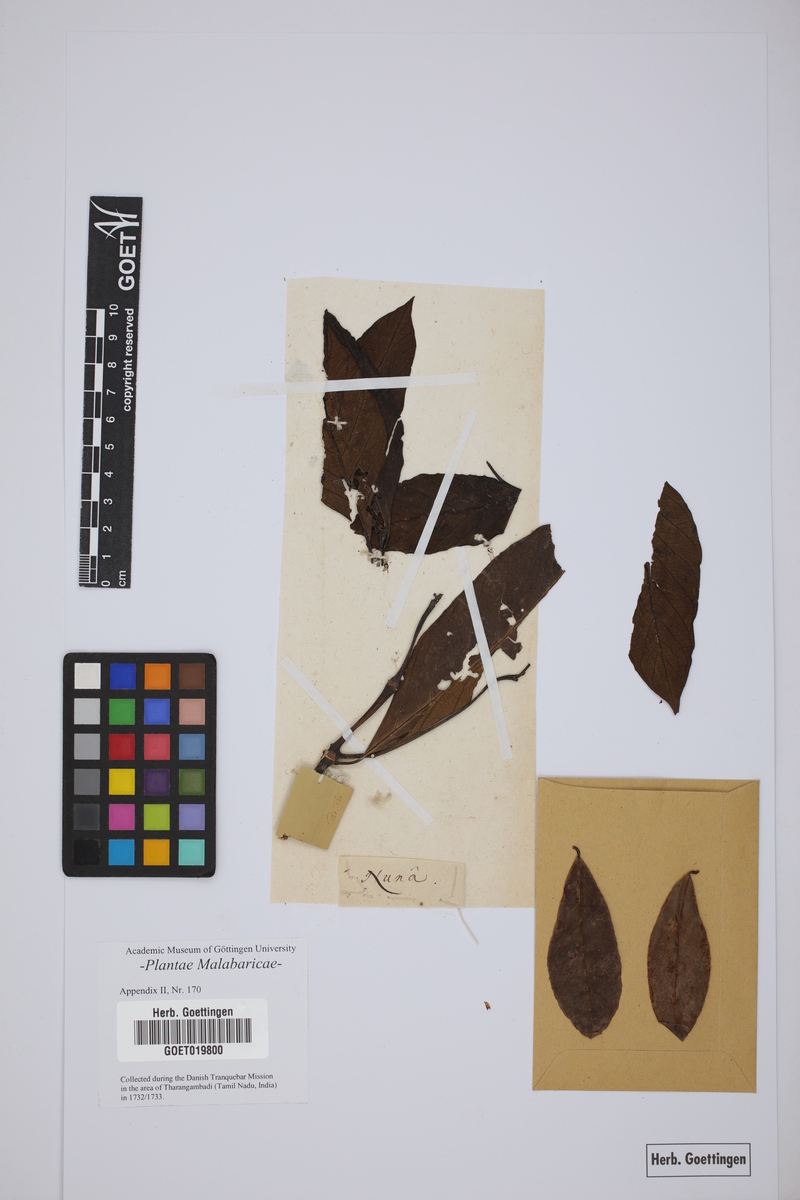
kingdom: Plantae
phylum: Tracheophyta
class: Magnoliopsida
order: Gentianales
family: Rubiaceae
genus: Gynochthodes
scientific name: Gynochthodes umbellata
